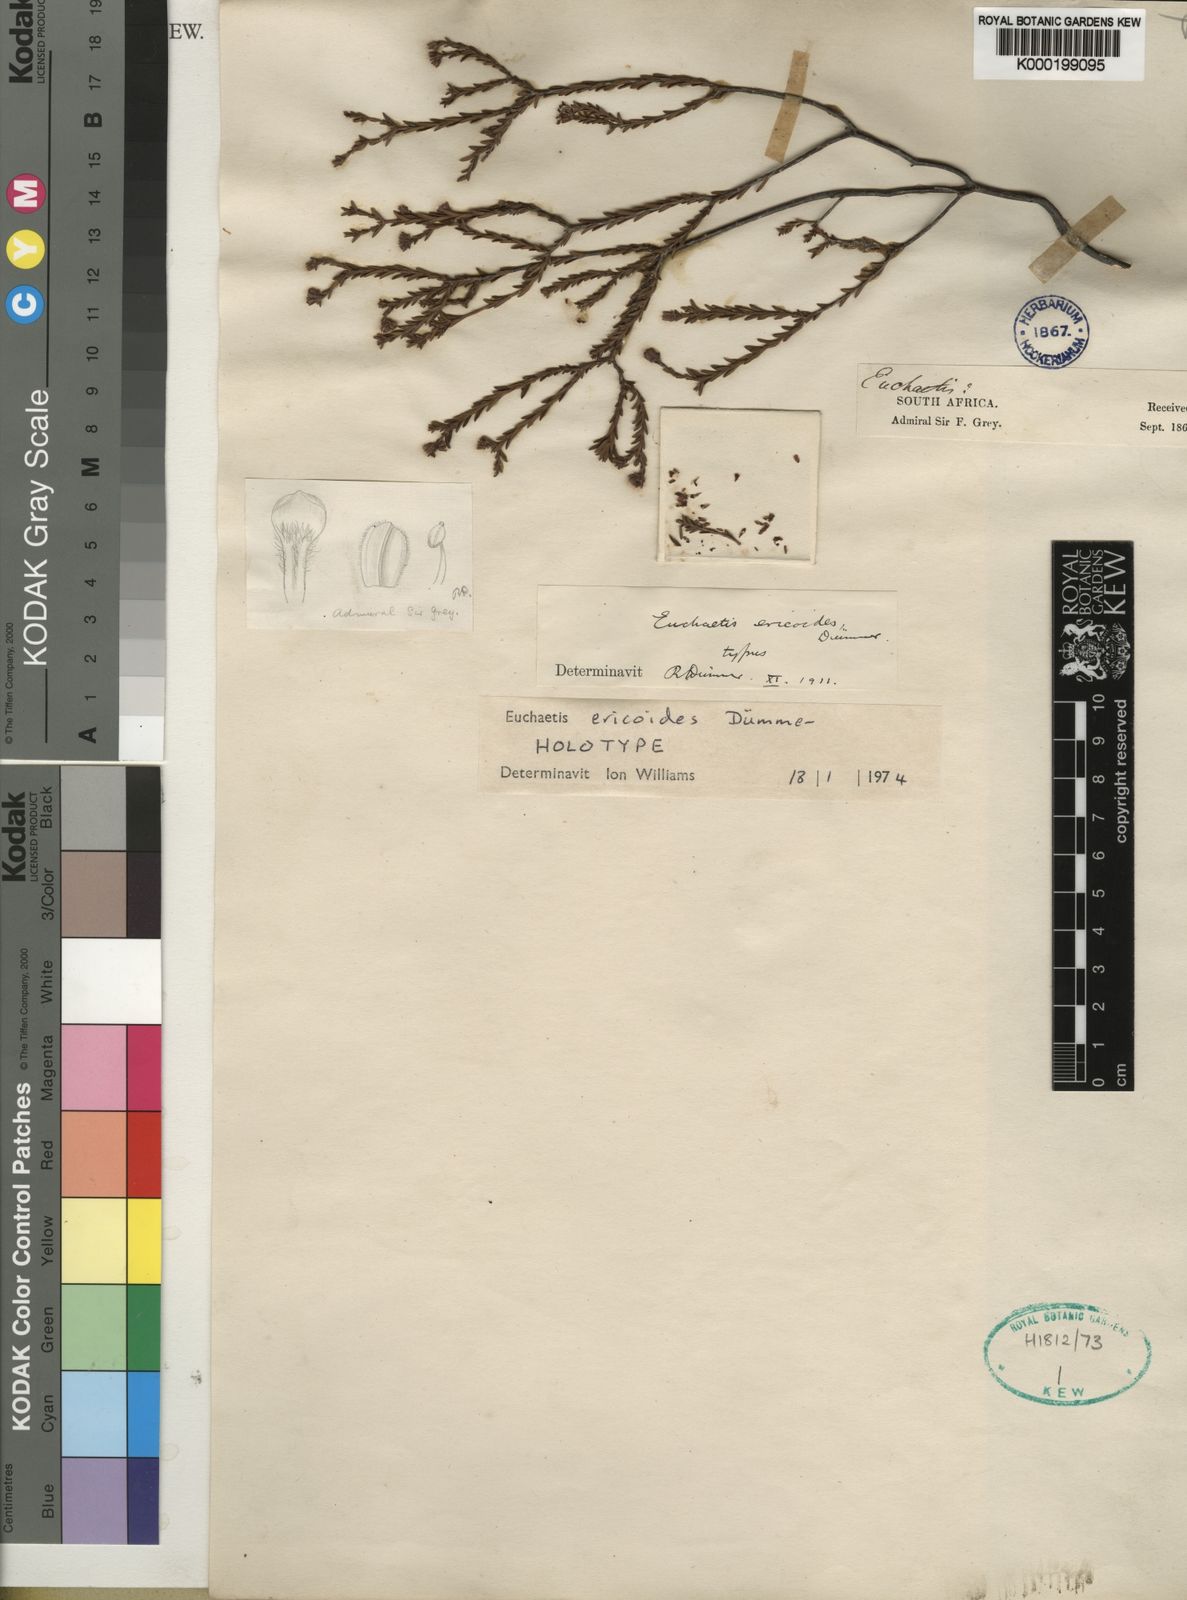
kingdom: Plantae
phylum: Tracheophyta
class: Magnoliopsida
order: Sapindales
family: Rutaceae
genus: Euchaetis
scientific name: Euchaetis
